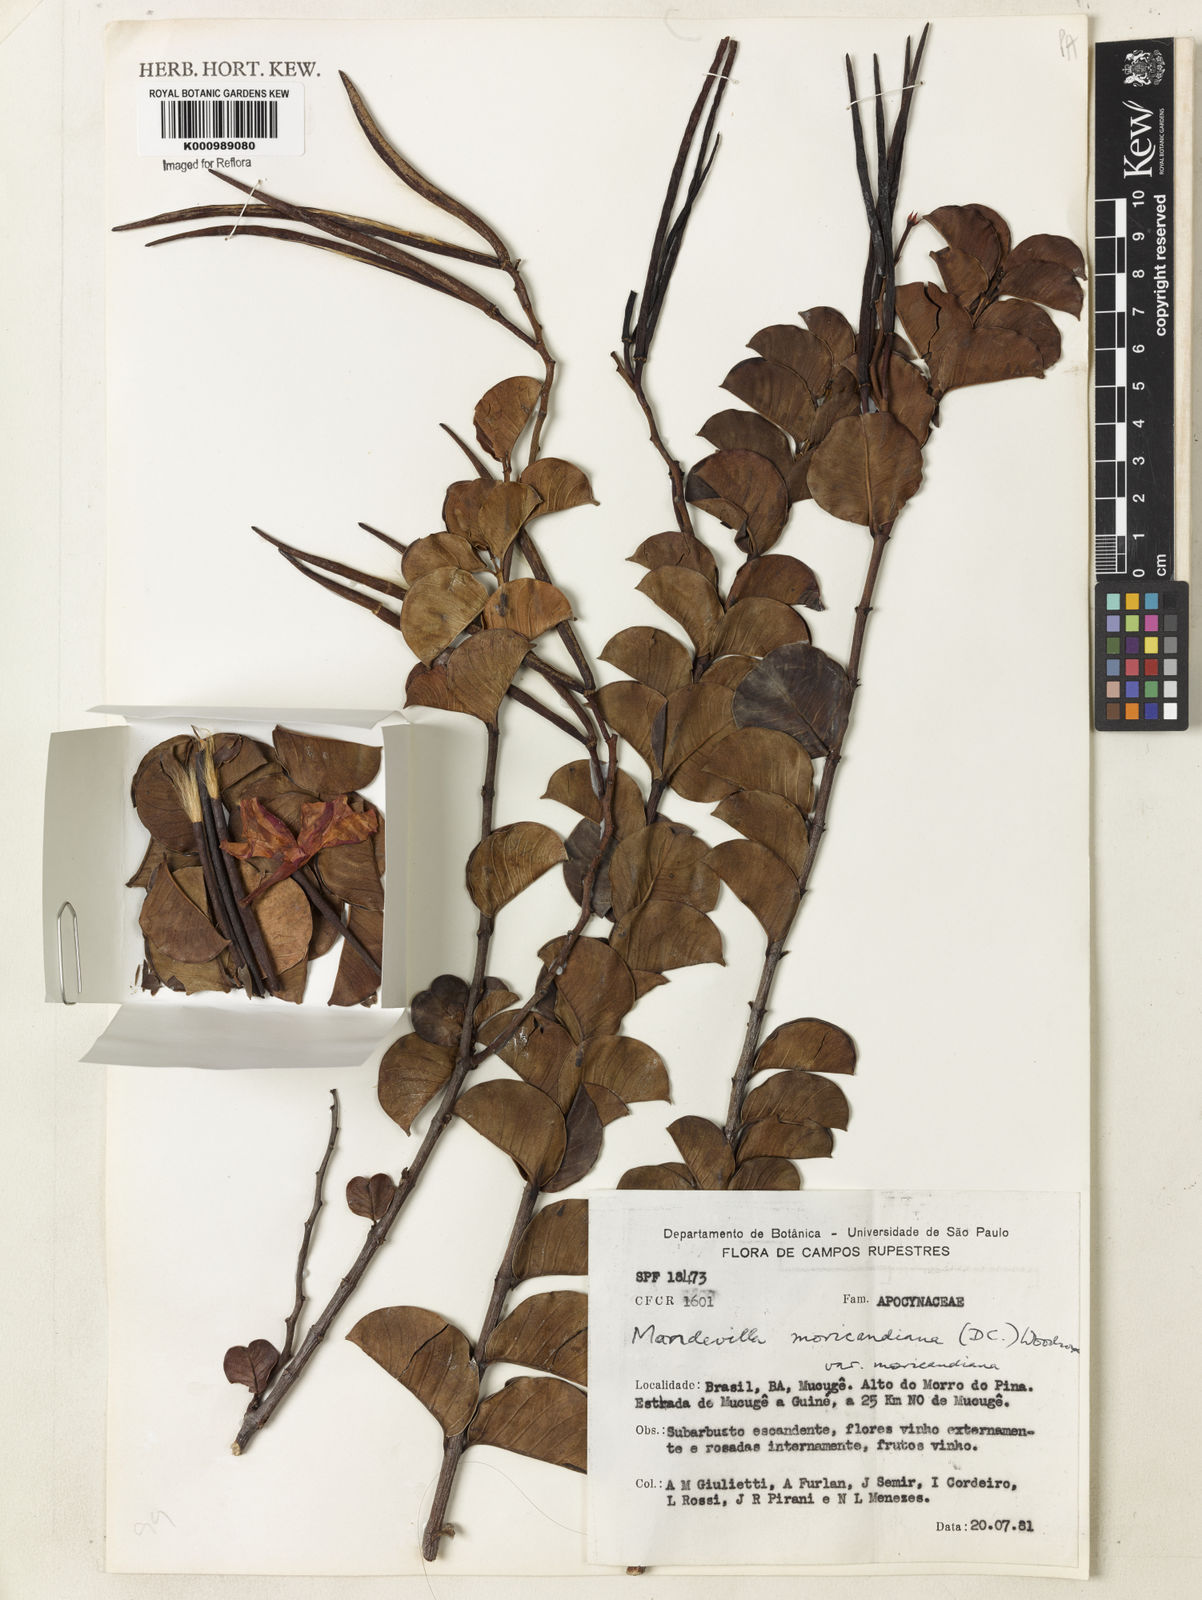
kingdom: Plantae
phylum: Tracheophyta
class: Magnoliopsida
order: Gentianales
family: Apocynaceae
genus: Mandevilla
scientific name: Mandevilla bahiensis
